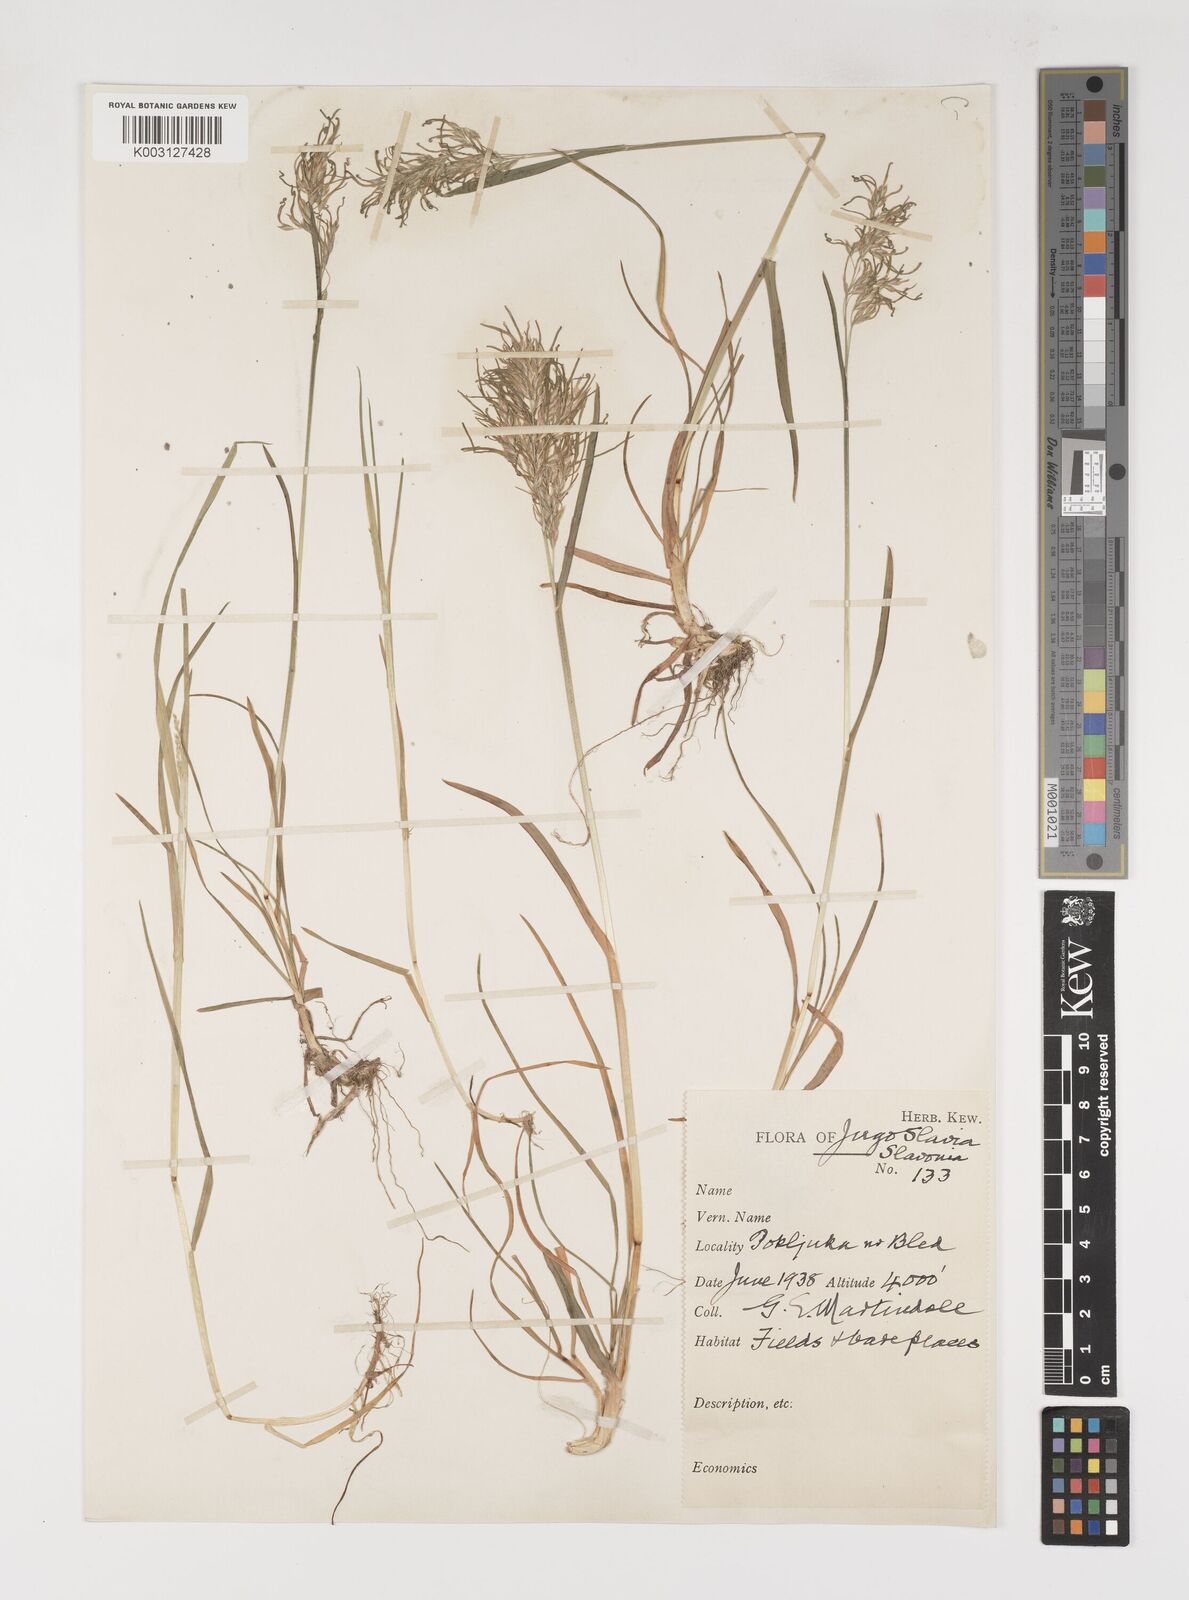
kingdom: Plantae
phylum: Tracheophyta
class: Liliopsida
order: Poales
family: Poaceae
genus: Poa
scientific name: Poa alpina
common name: Alpine bluegrass
